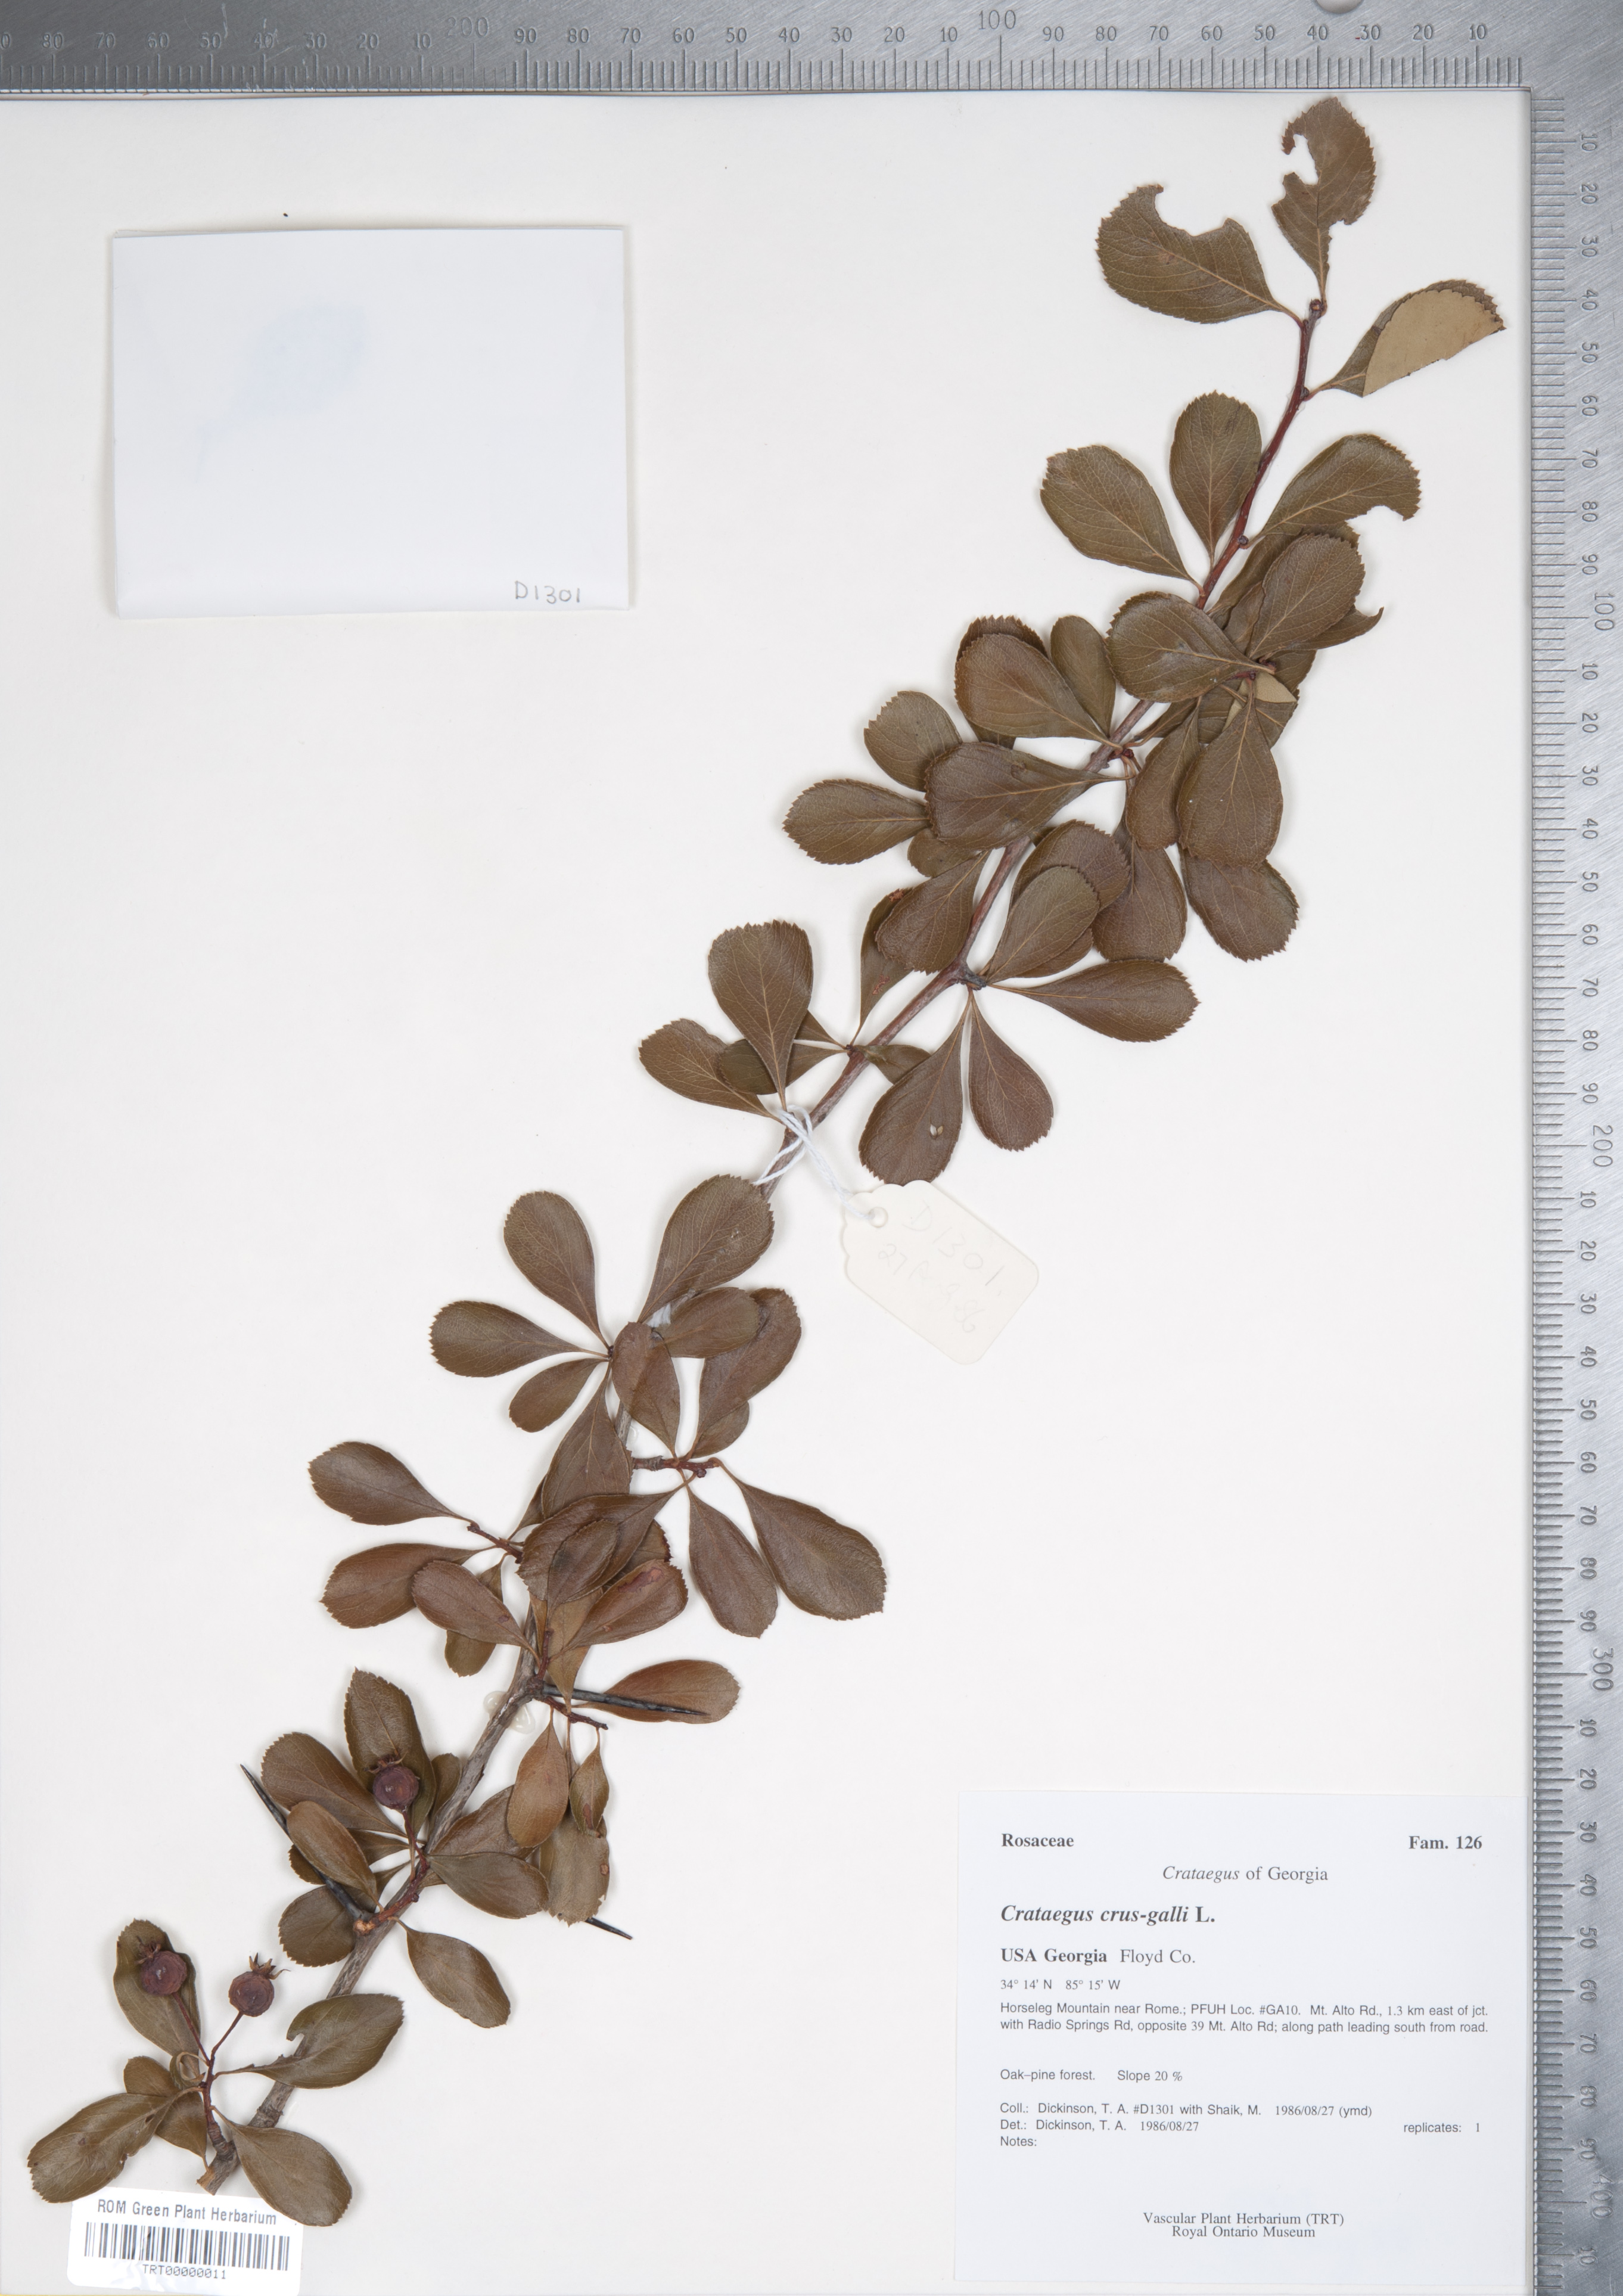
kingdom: Plantae
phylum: Tracheophyta
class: Magnoliopsida
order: Rosales
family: Rosaceae
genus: Crataegus
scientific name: Crataegus crus-galli
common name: Cockspurthorn
